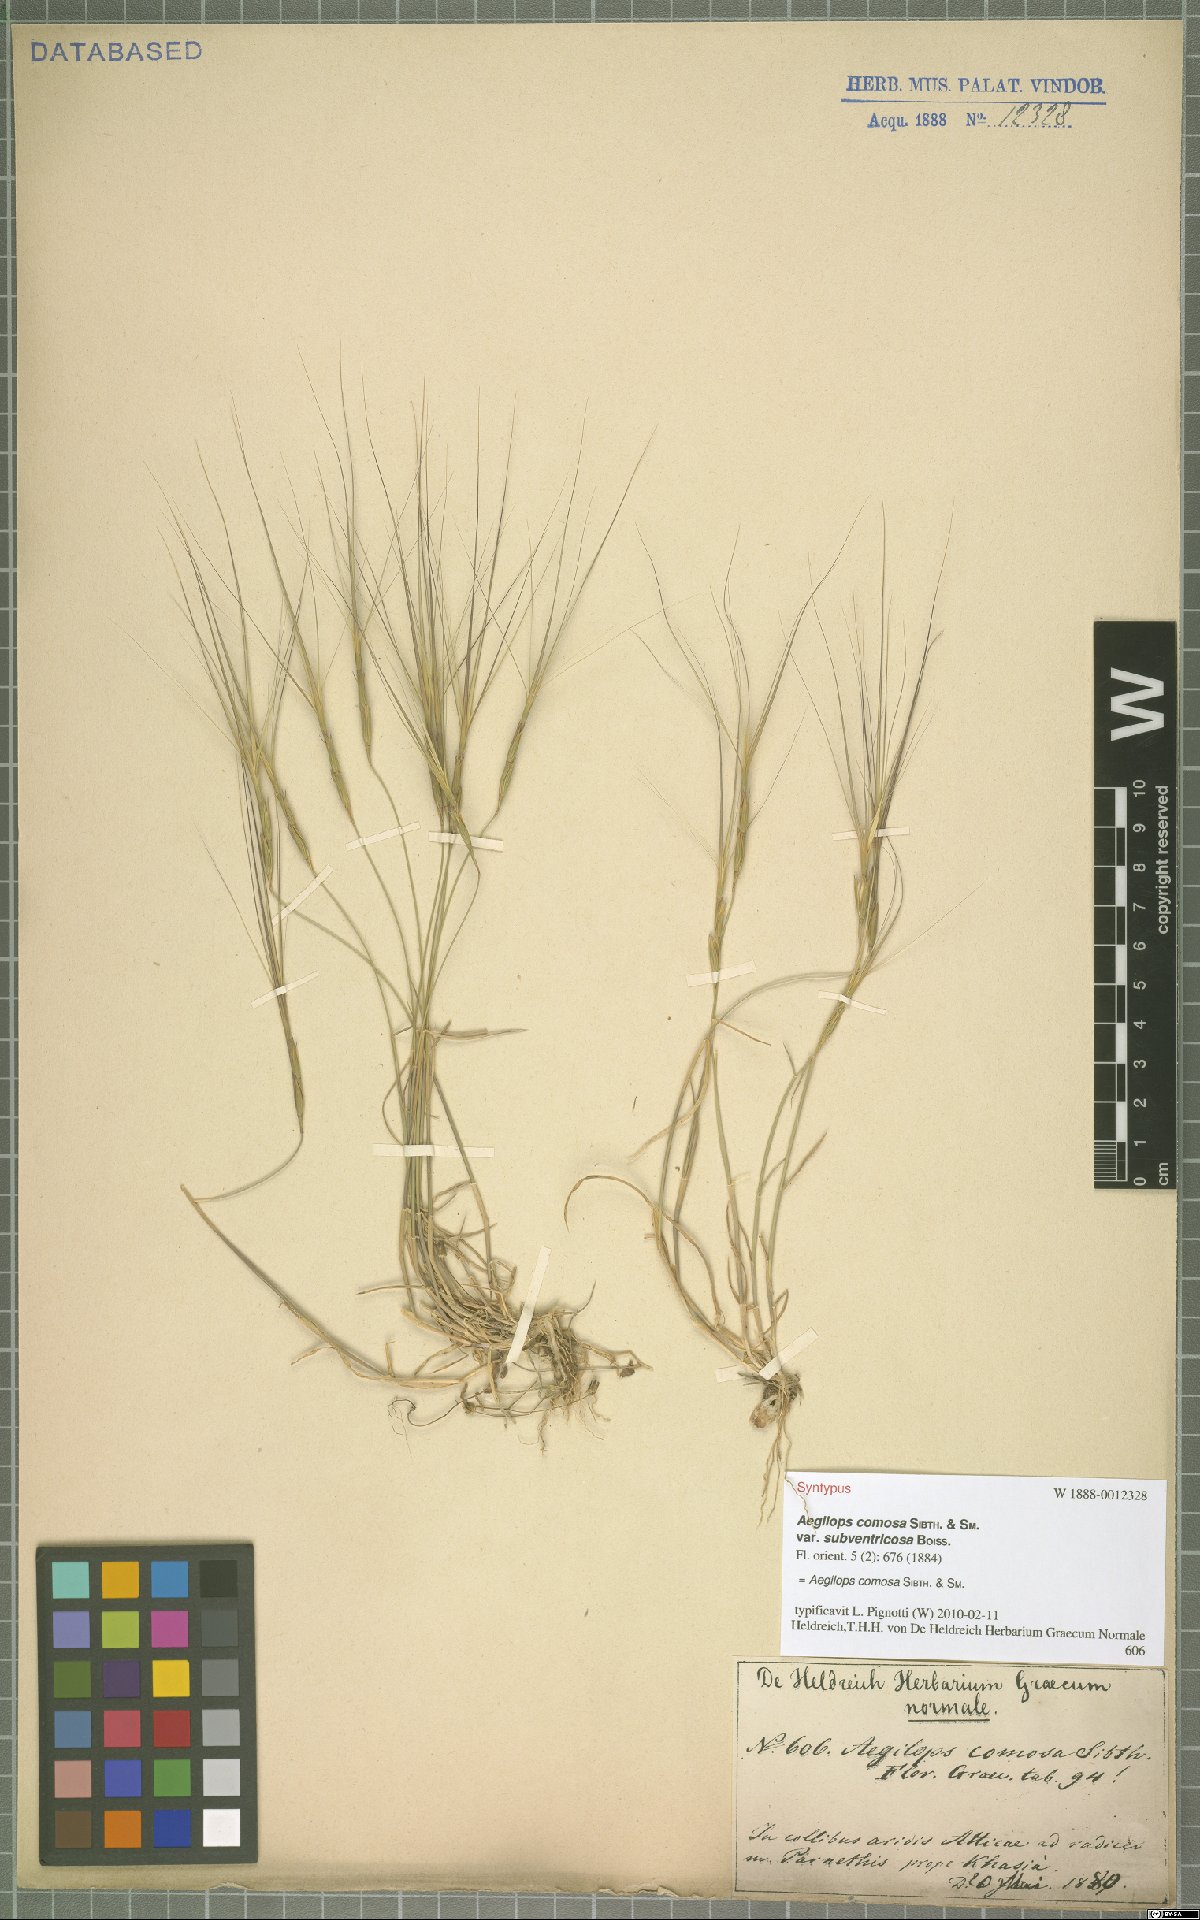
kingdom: Plantae
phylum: Tracheophyta
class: Liliopsida
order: Poales
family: Poaceae
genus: Aegilops
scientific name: Aegilops comosa
